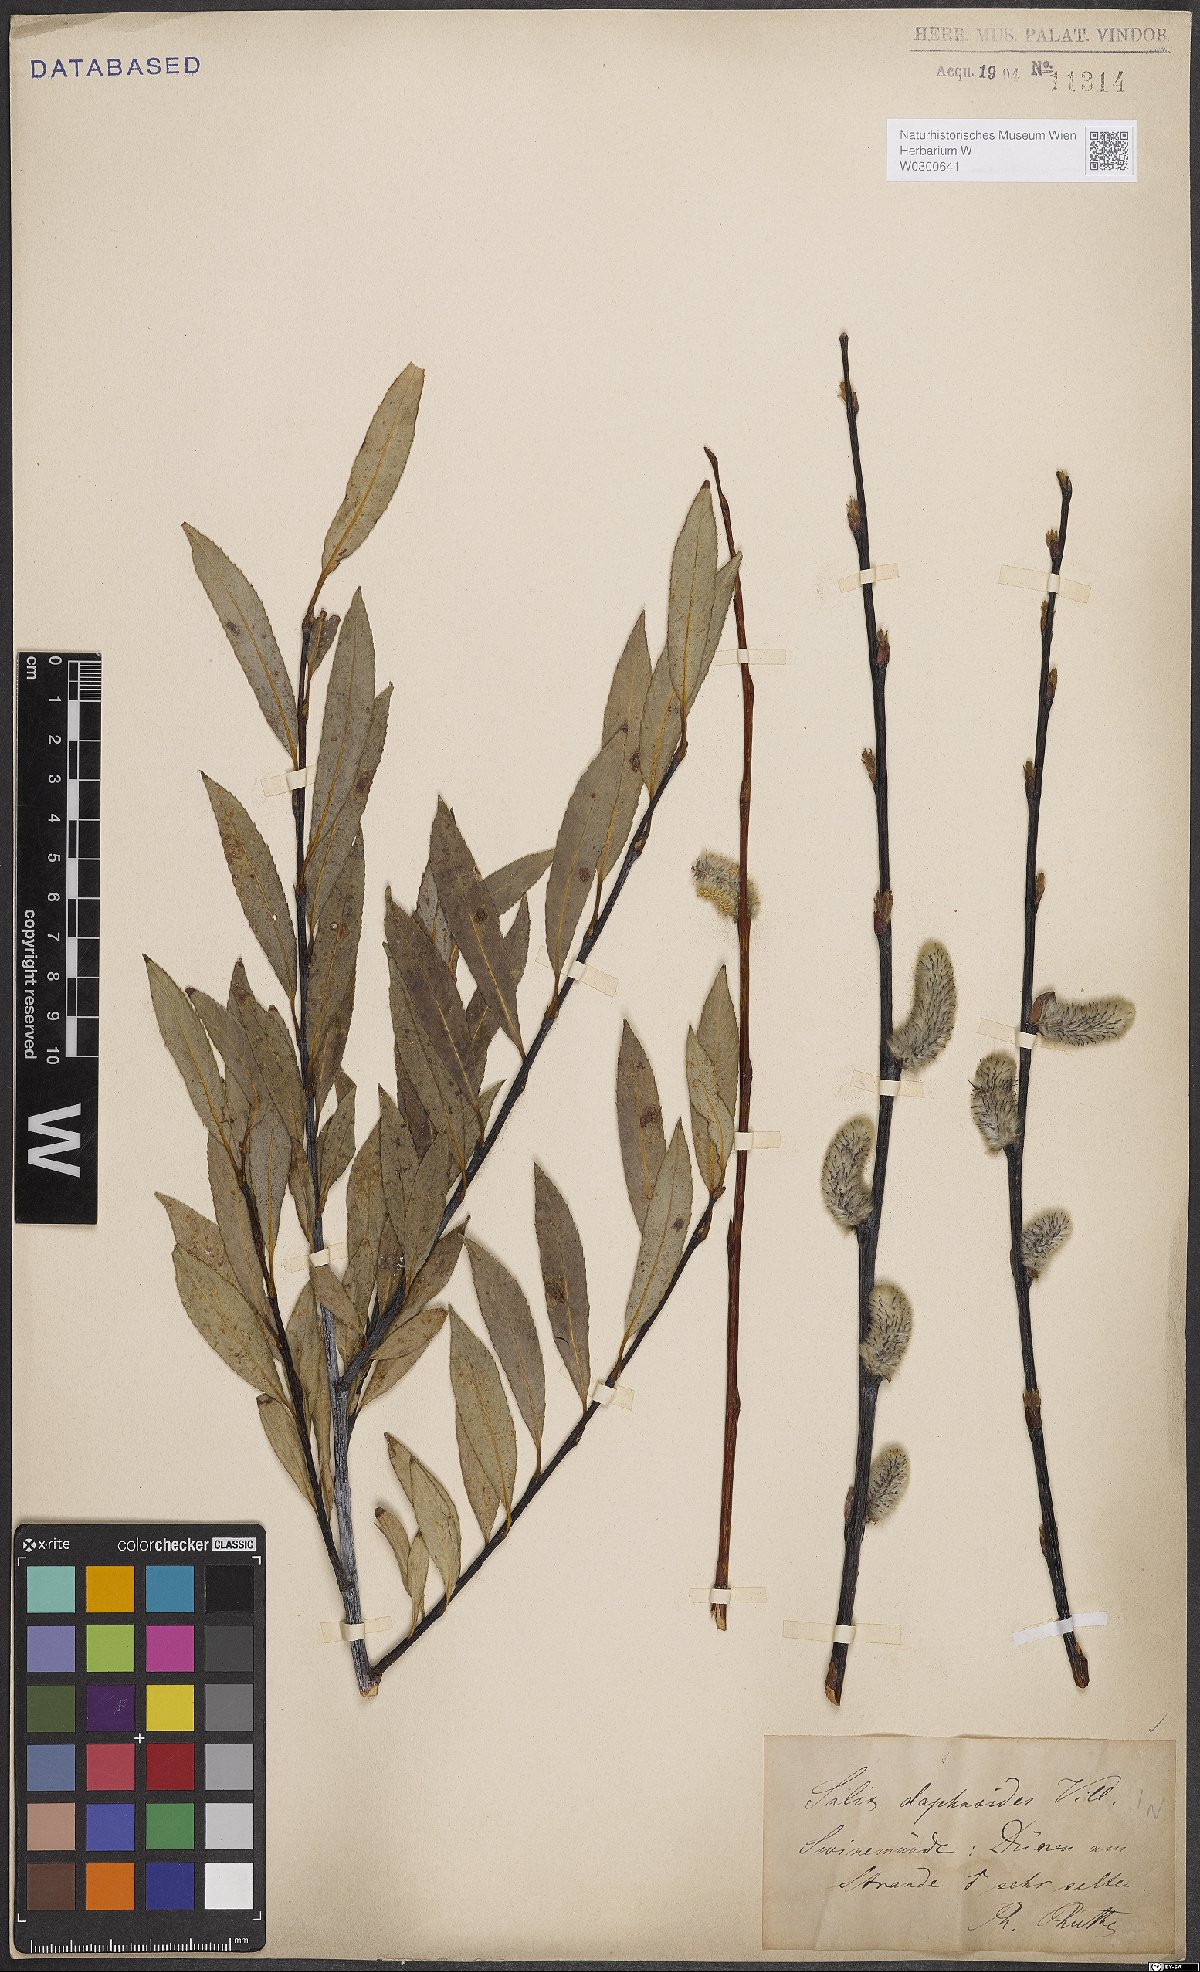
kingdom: Plantae
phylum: Tracheophyta
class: Magnoliopsida
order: Malpighiales
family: Salicaceae
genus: Salix
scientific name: Salix daphnoides
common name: European violet-willow
